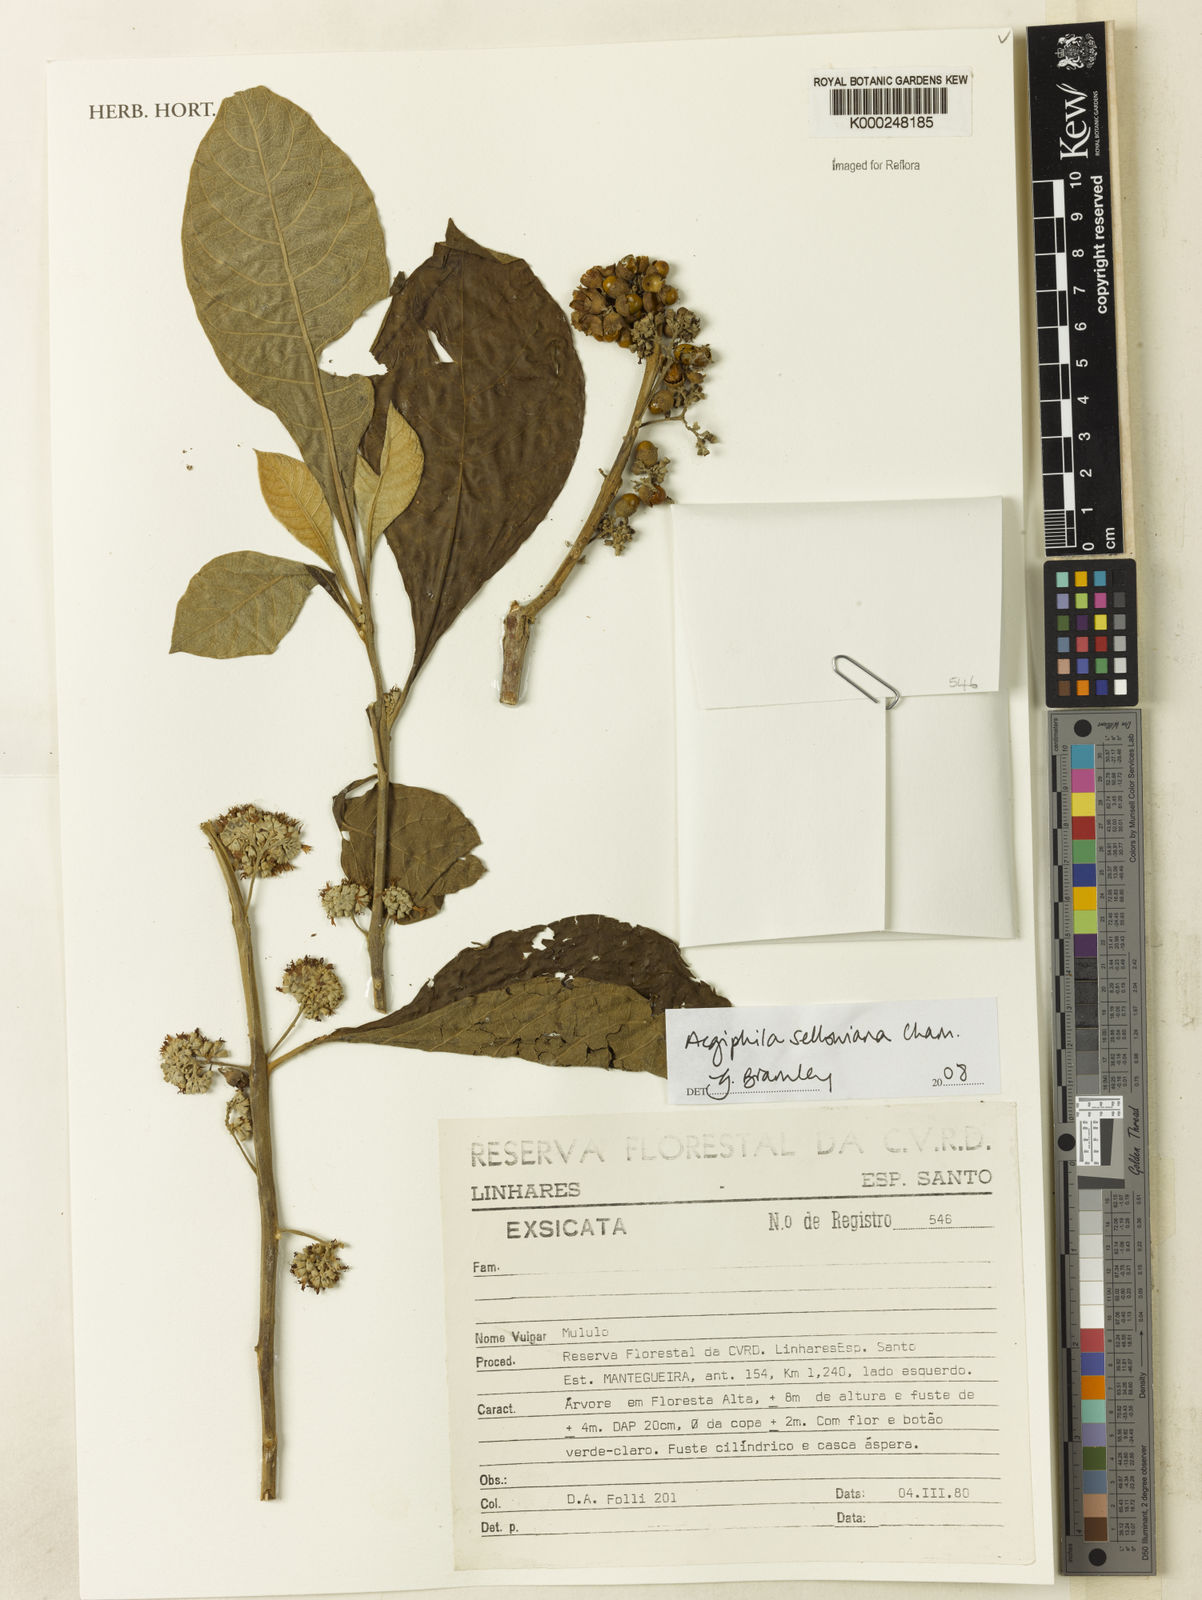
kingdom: Plantae
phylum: Tracheophyta
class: Magnoliopsida
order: Lamiales
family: Lamiaceae
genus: Aegiphila
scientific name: Aegiphila verticillata
